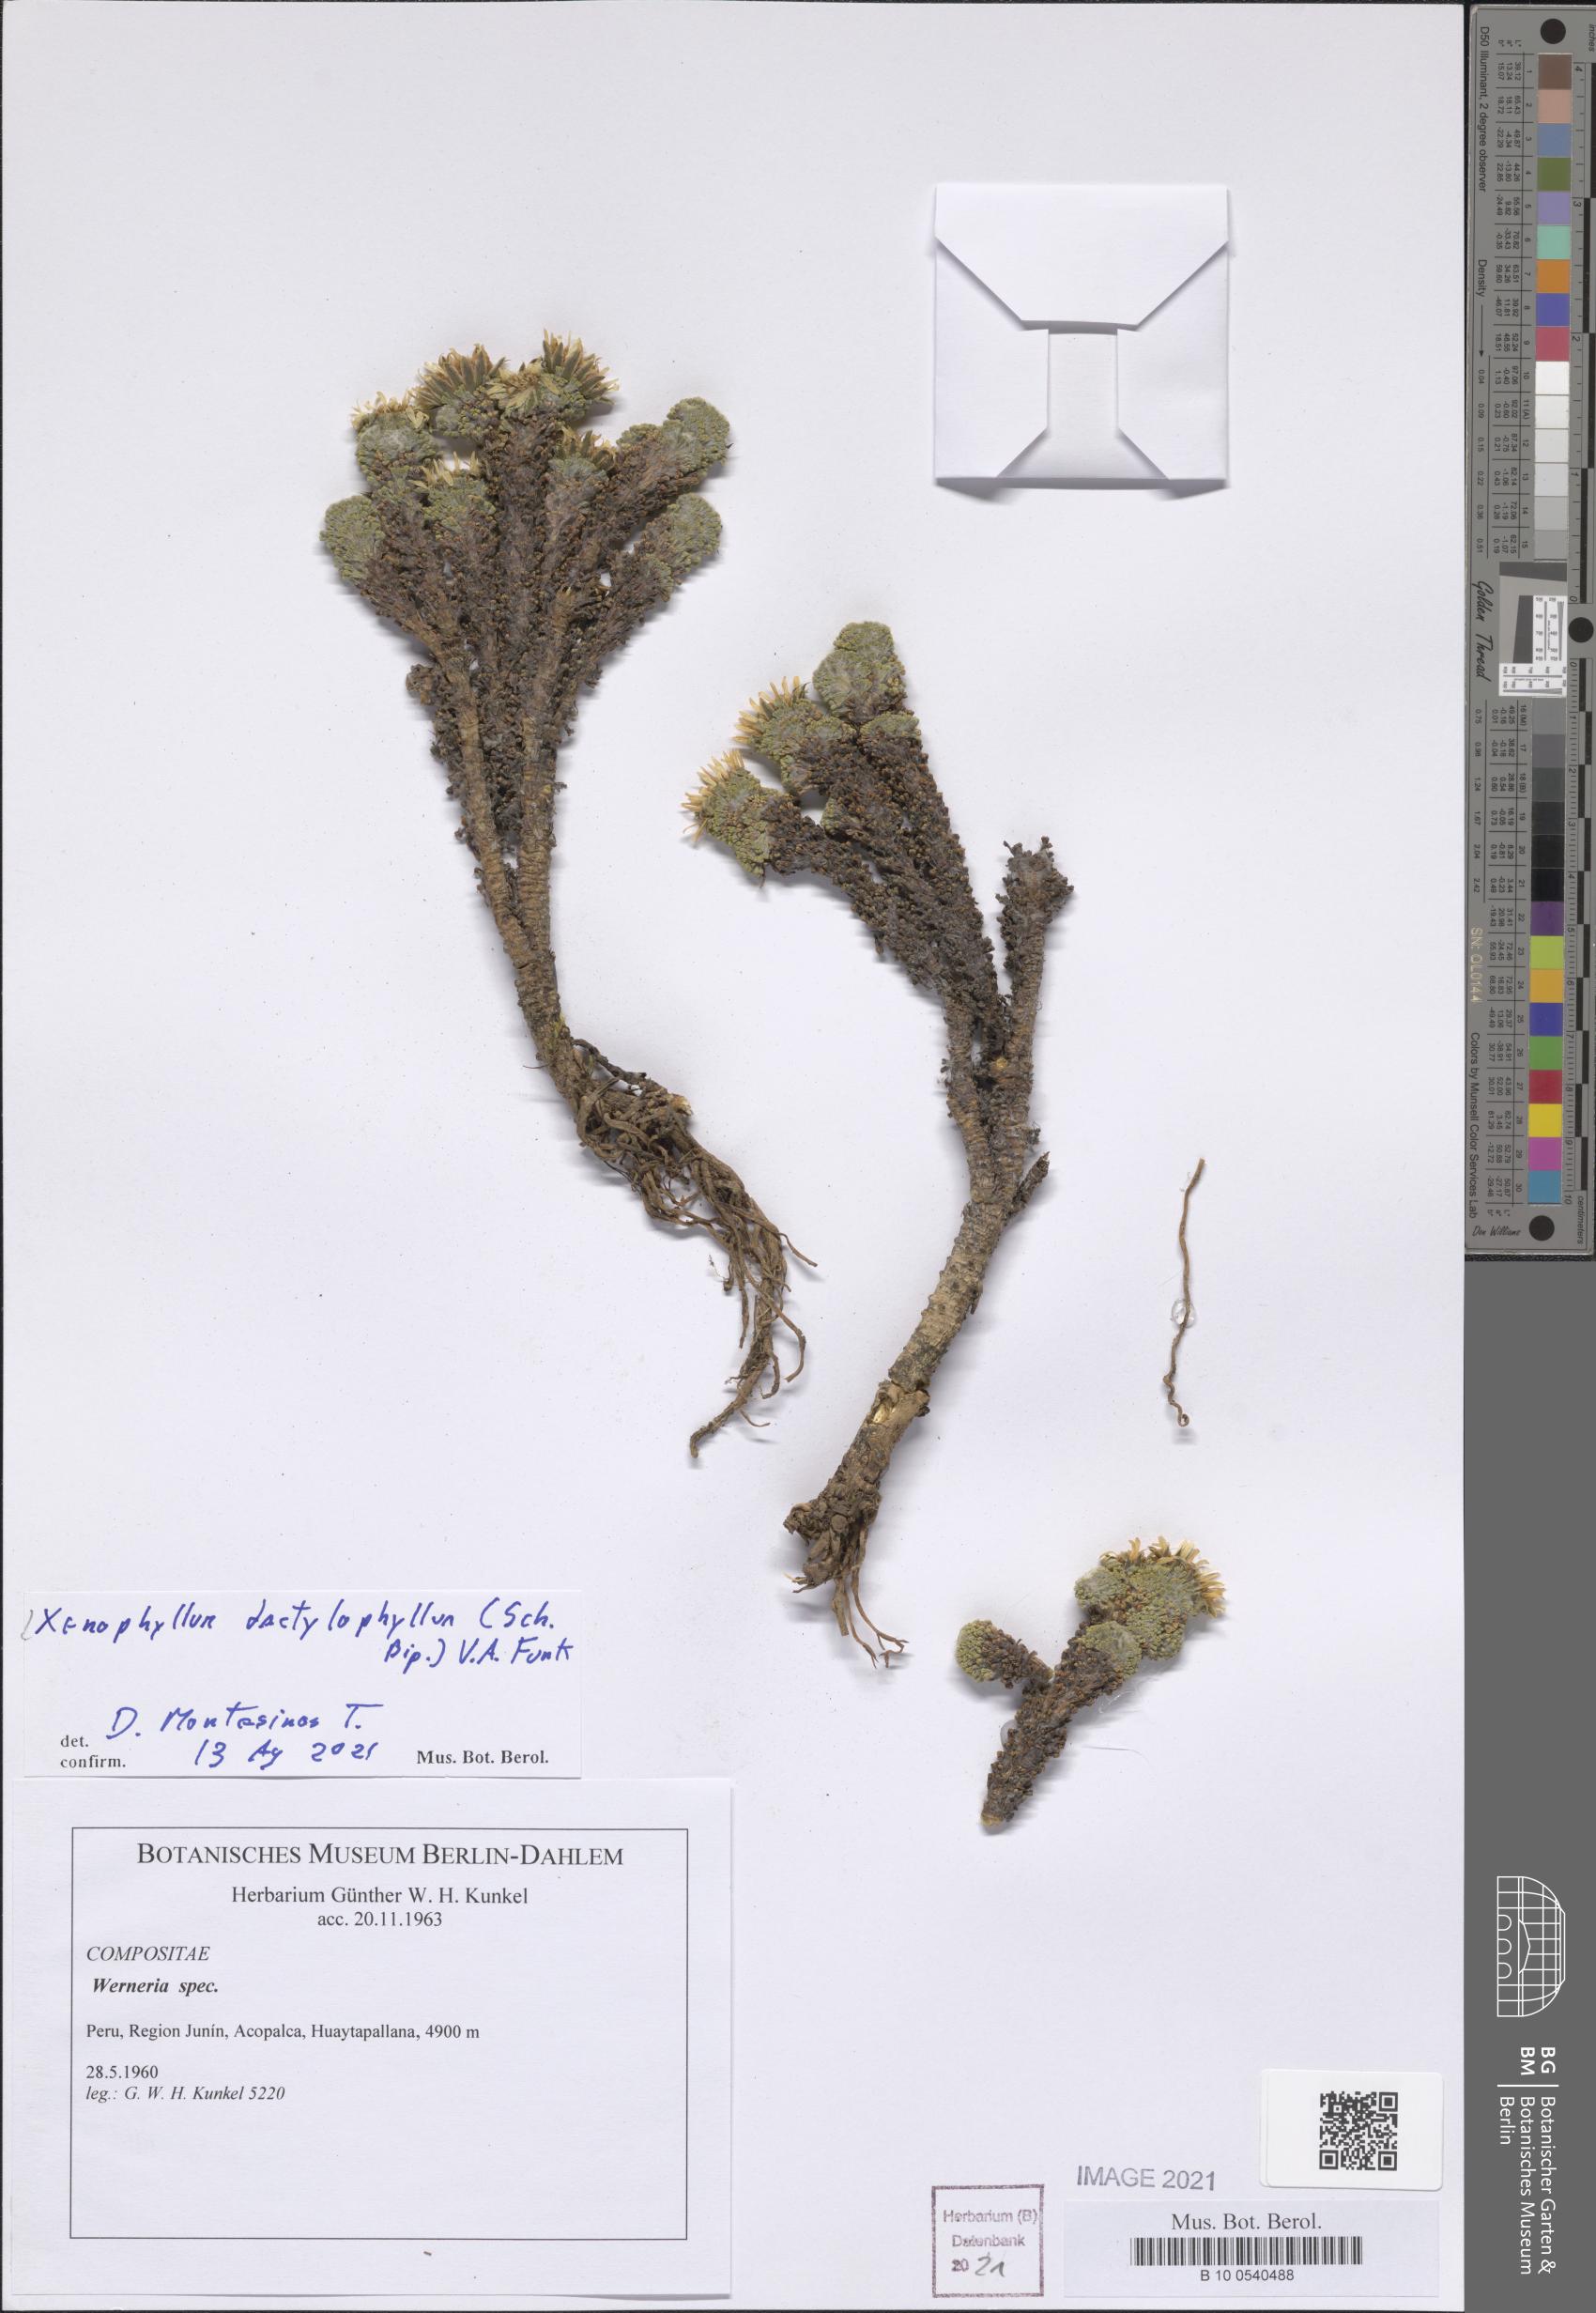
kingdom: Plantae
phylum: Tracheophyta
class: Magnoliopsida
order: Asterales
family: Asteraceae
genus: Werneria
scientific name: Werneria dactylophylla
